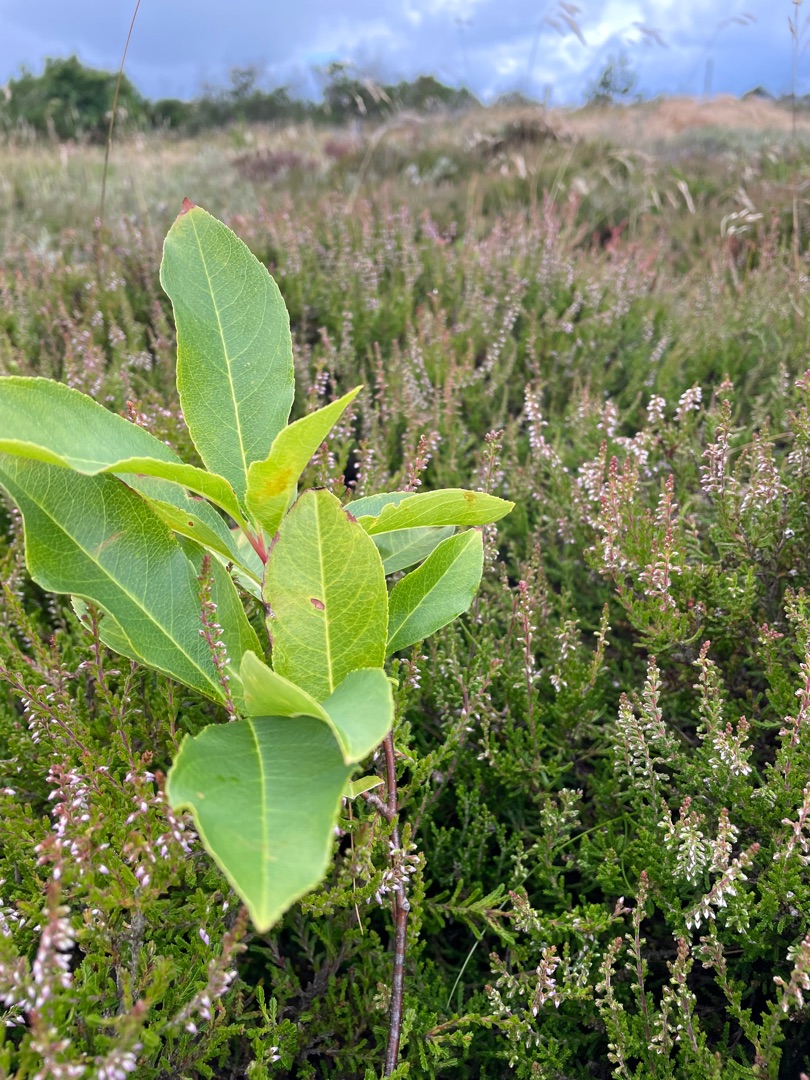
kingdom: Plantae
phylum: Tracheophyta
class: Magnoliopsida
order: Rosales
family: Rosaceae
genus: Prunus
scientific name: Prunus serotina
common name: Glansbladet hæg
